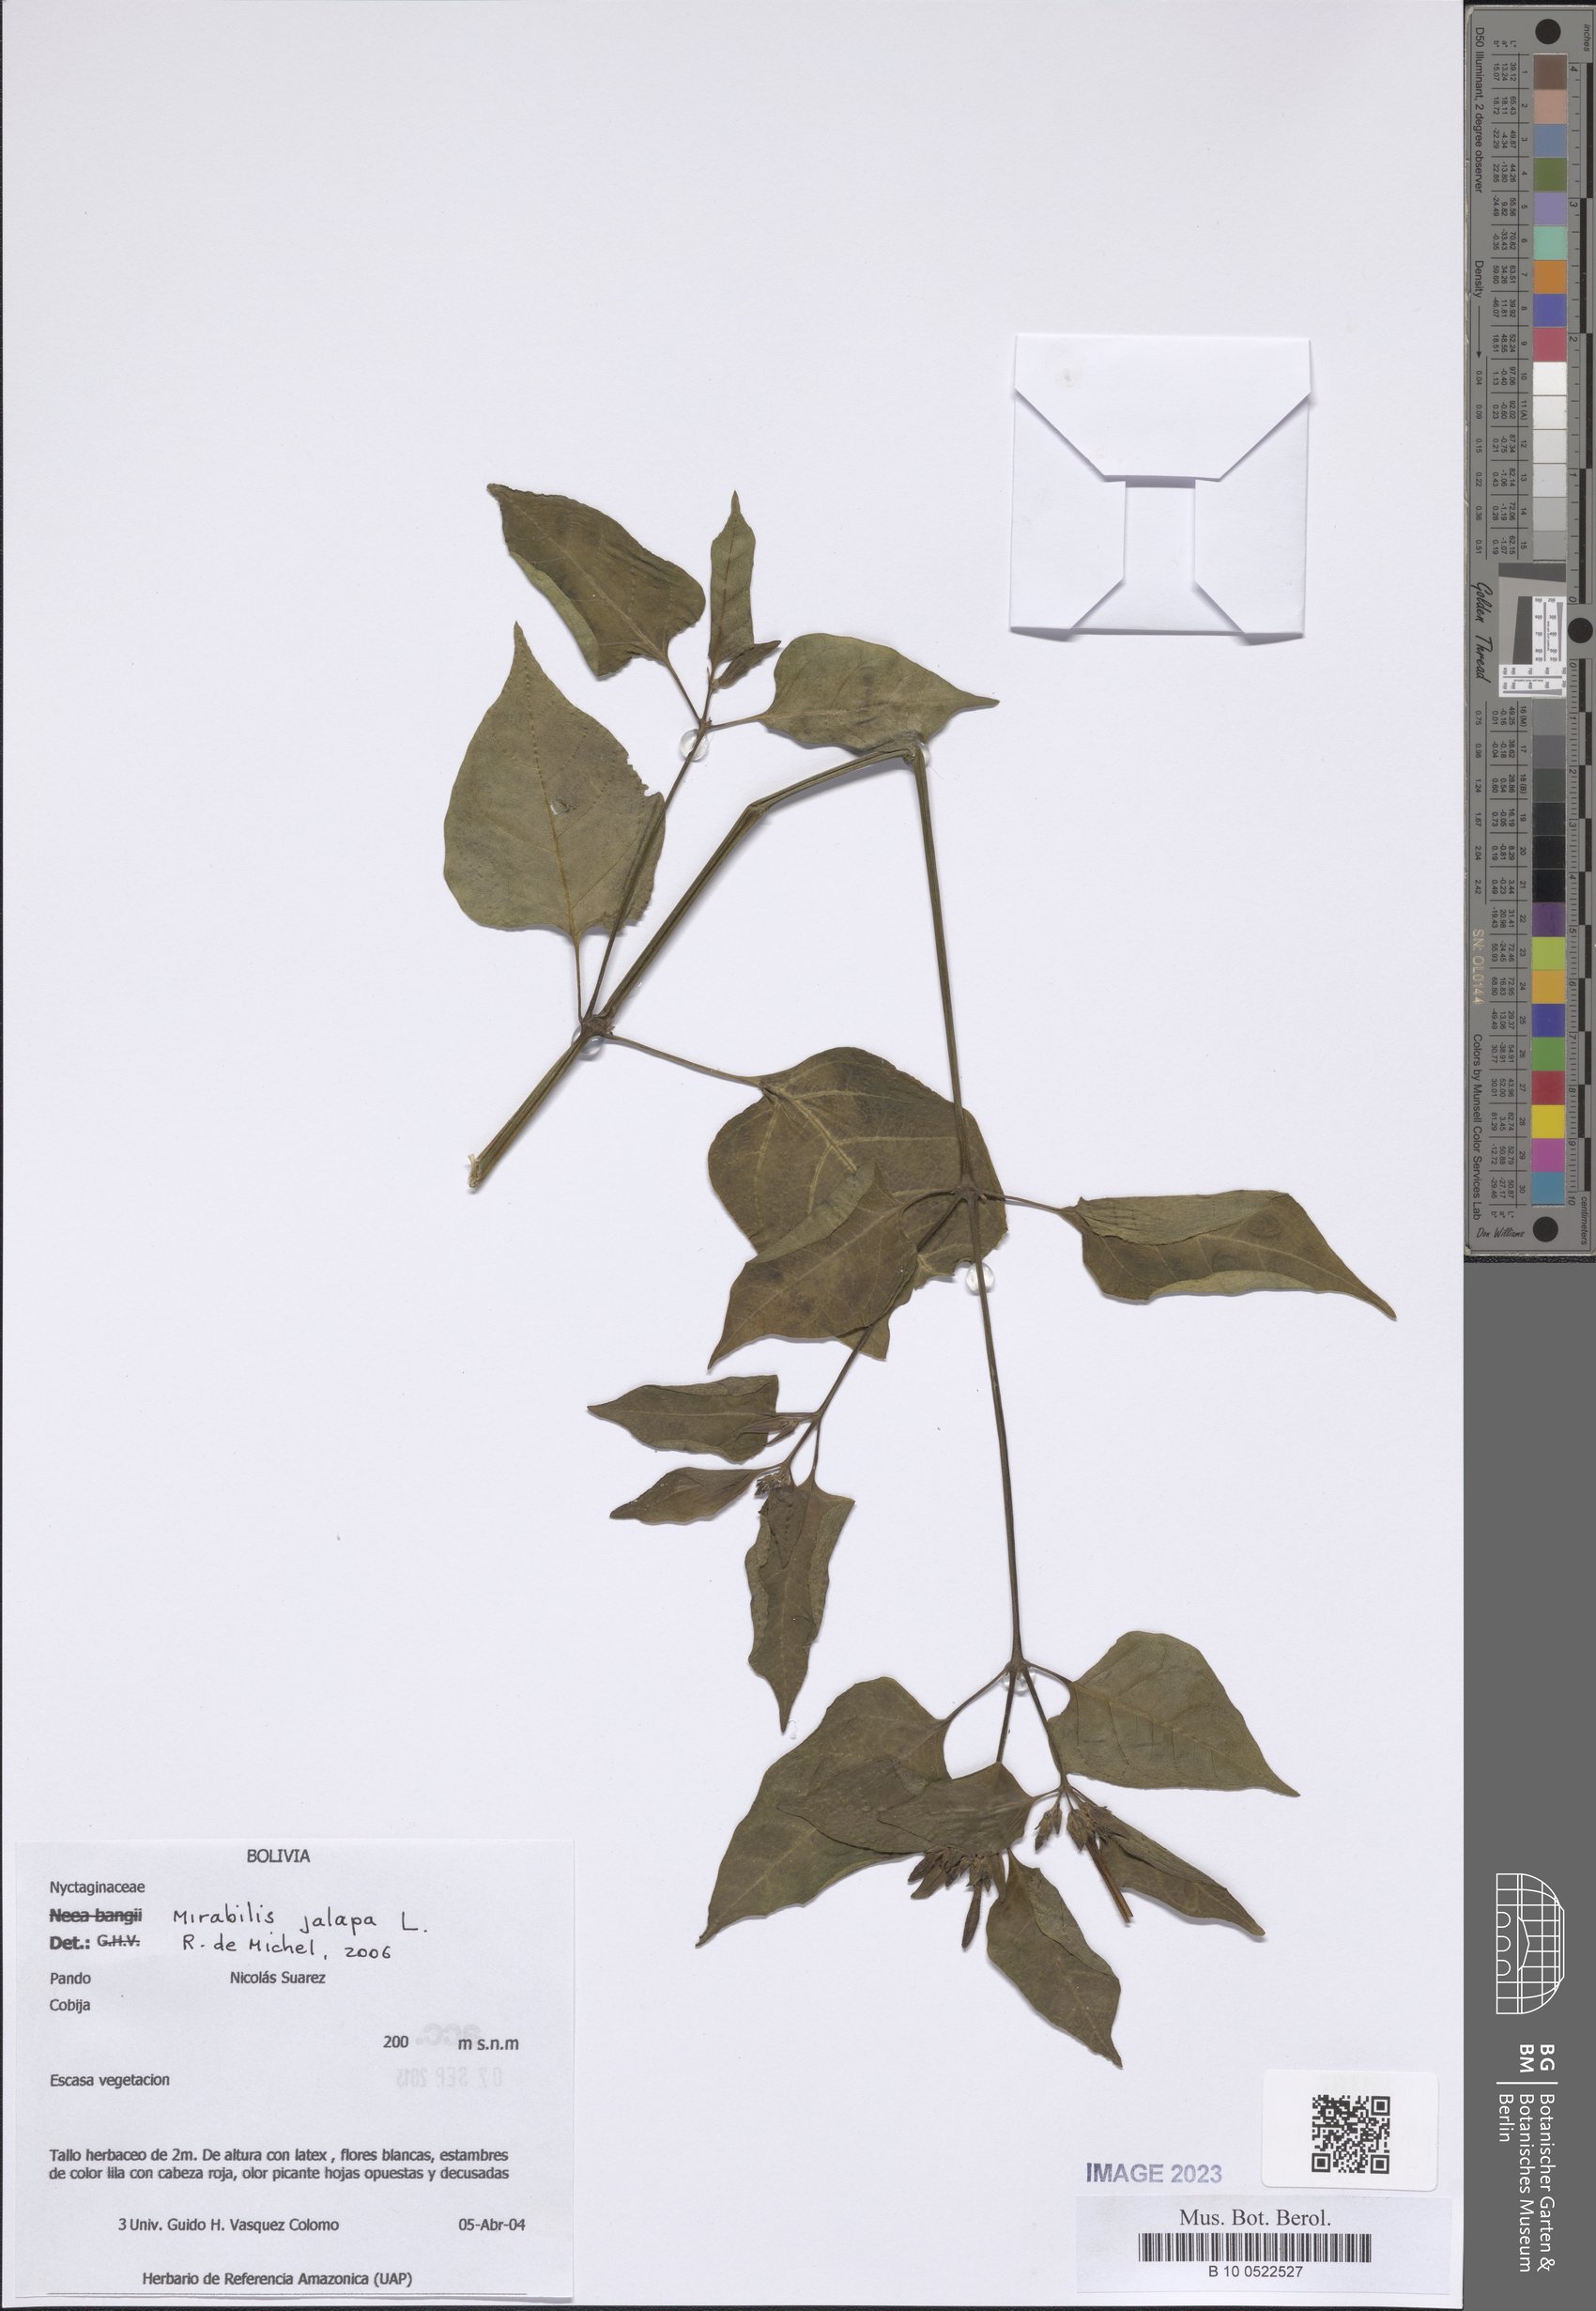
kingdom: Plantae
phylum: Tracheophyta
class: Magnoliopsida
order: Caryophyllales
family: Nyctaginaceae
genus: Mirabilis
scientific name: Mirabilis jalapa
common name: Marvel-of-peru
